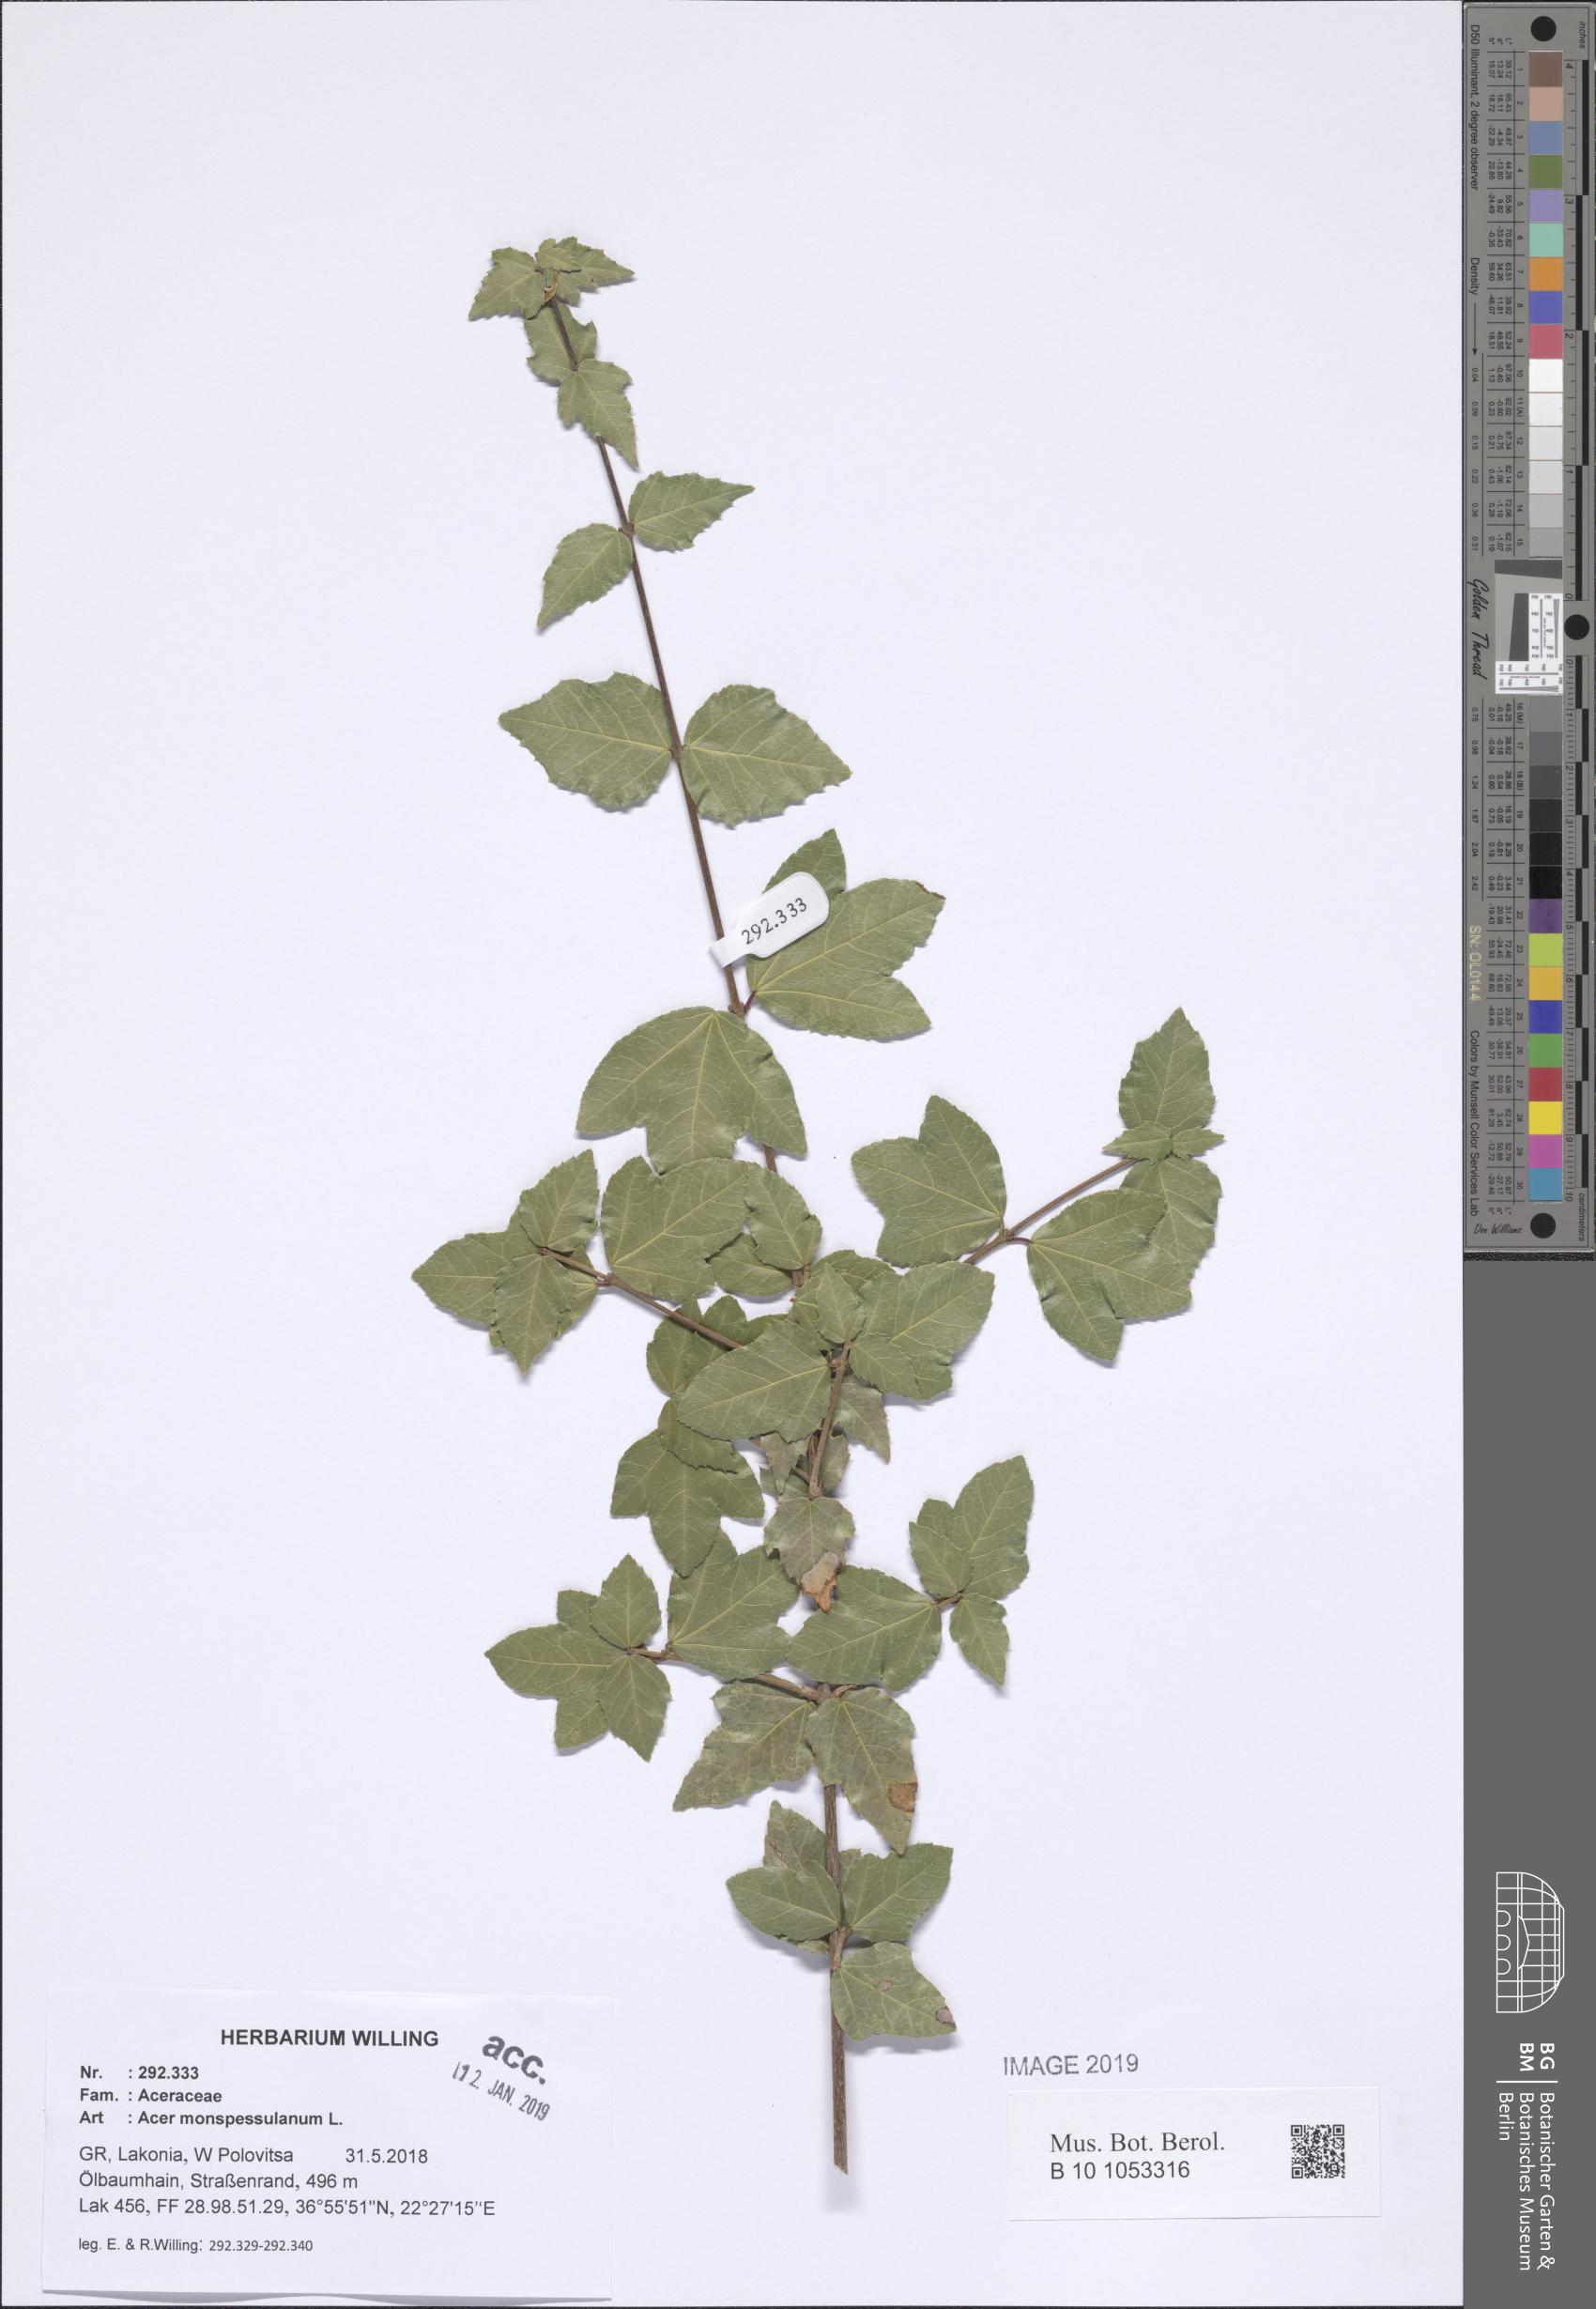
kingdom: Plantae
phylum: Tracheophyta
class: Magnoliopsida
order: Sapindales
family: Sapindaceae
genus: Acer
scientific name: Acer monspessulanum
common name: Montpellier maple
